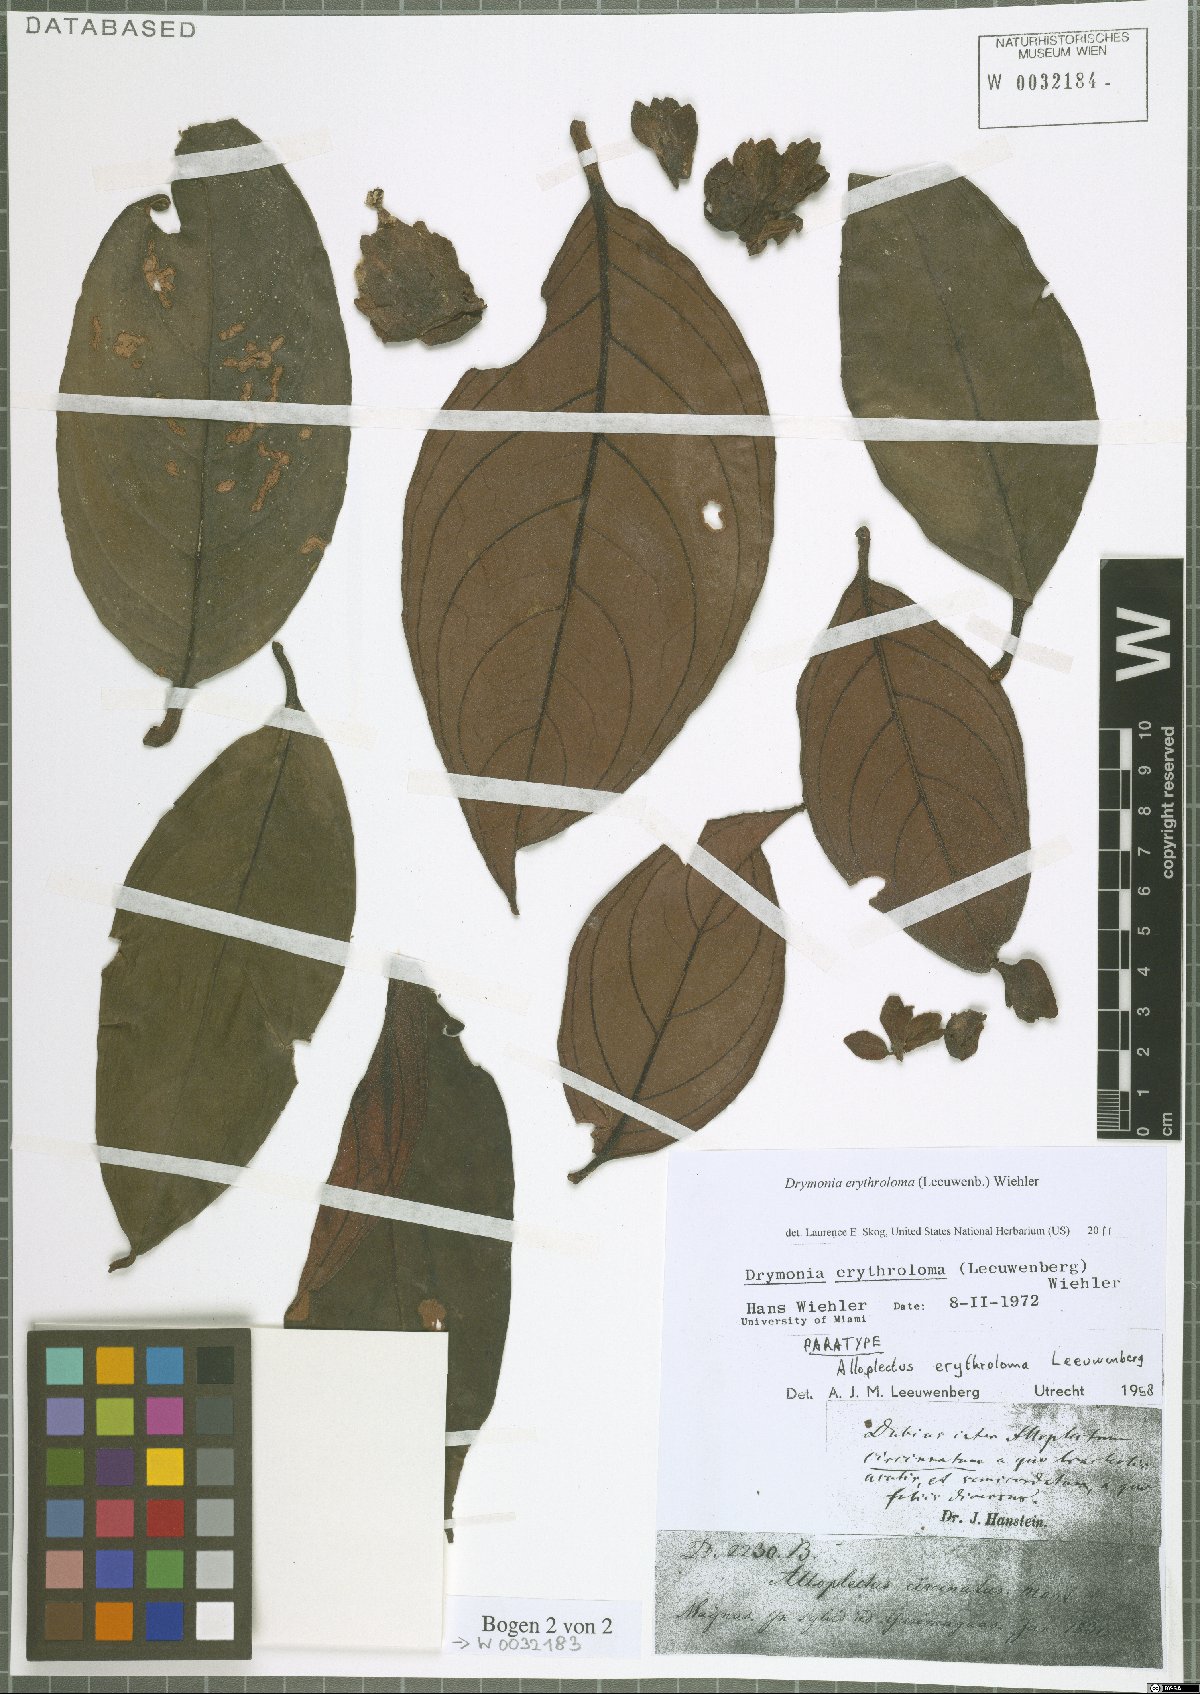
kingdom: Plantae
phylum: Tracheophyta
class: Magnoliopsida
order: Lamiales
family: Gesneriaceae
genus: Drymonia
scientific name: Drymonia erythroloma
